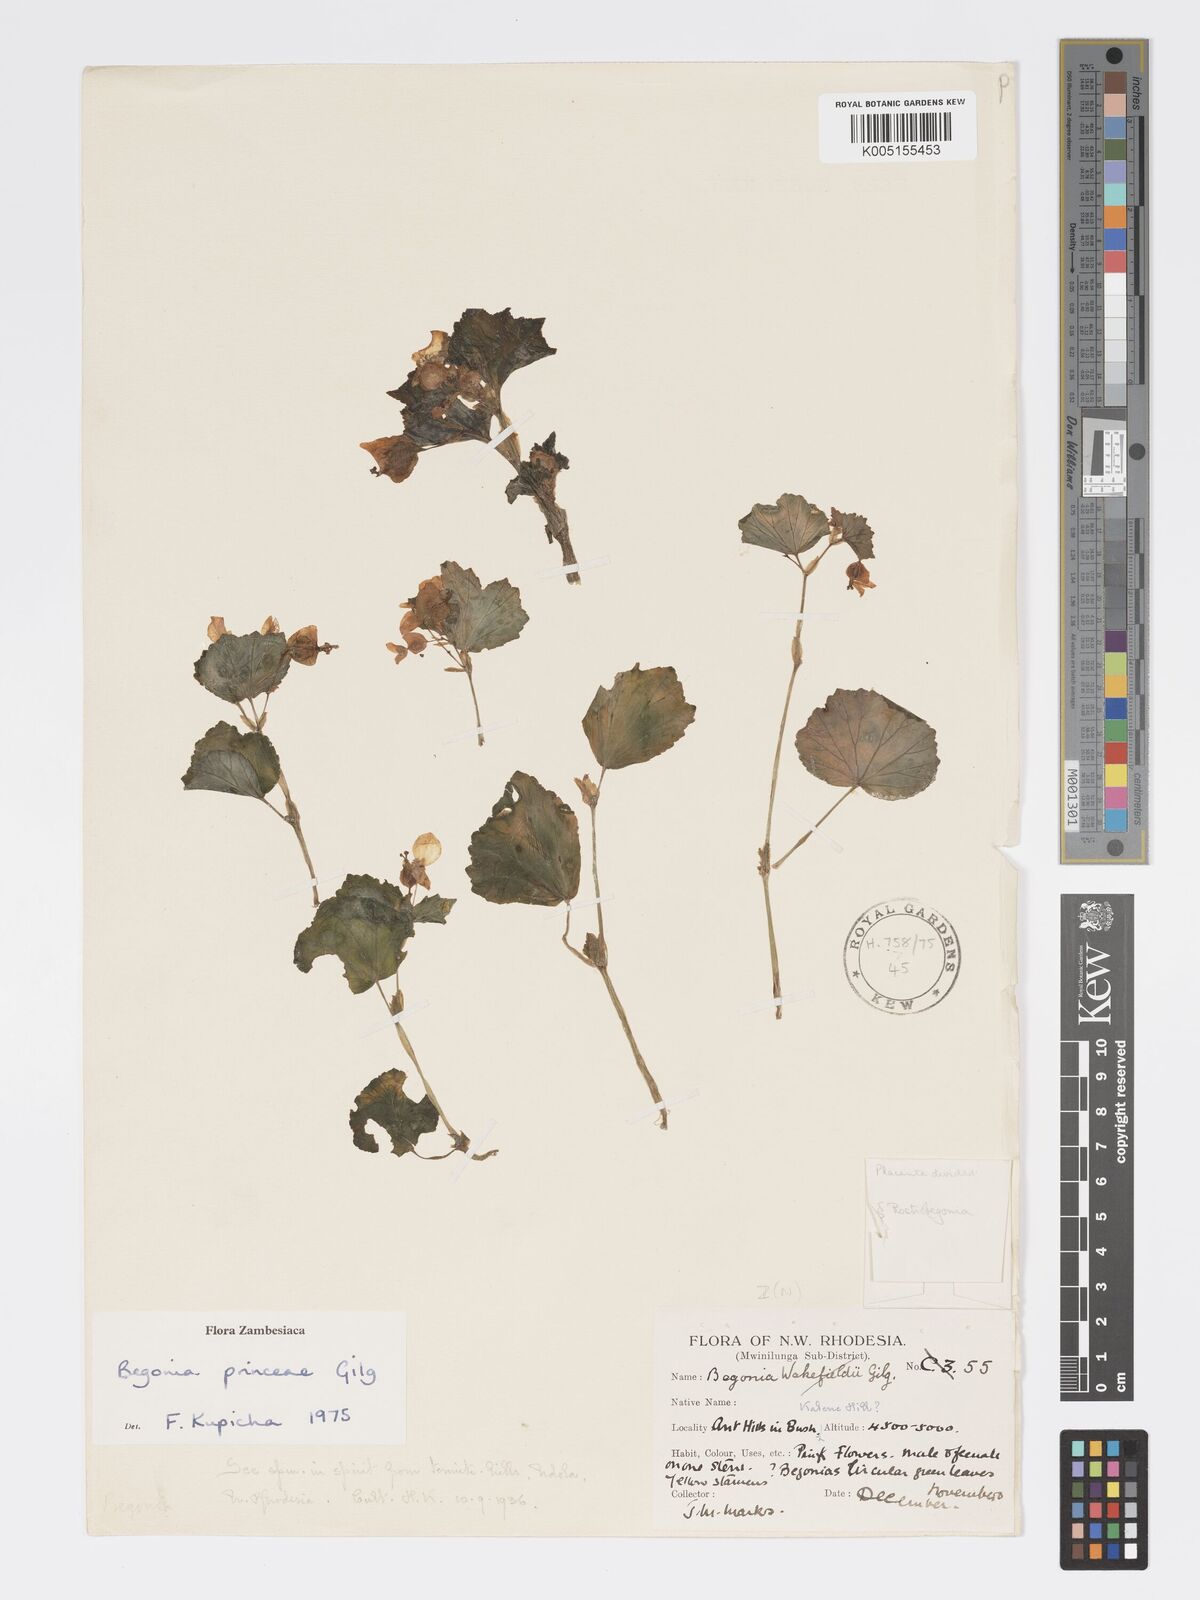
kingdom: Plantae
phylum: Tracheophyta
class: Magnoliopsida
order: Cucurbitales
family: Begoniaceae
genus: Begonia
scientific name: Begonia princeae
